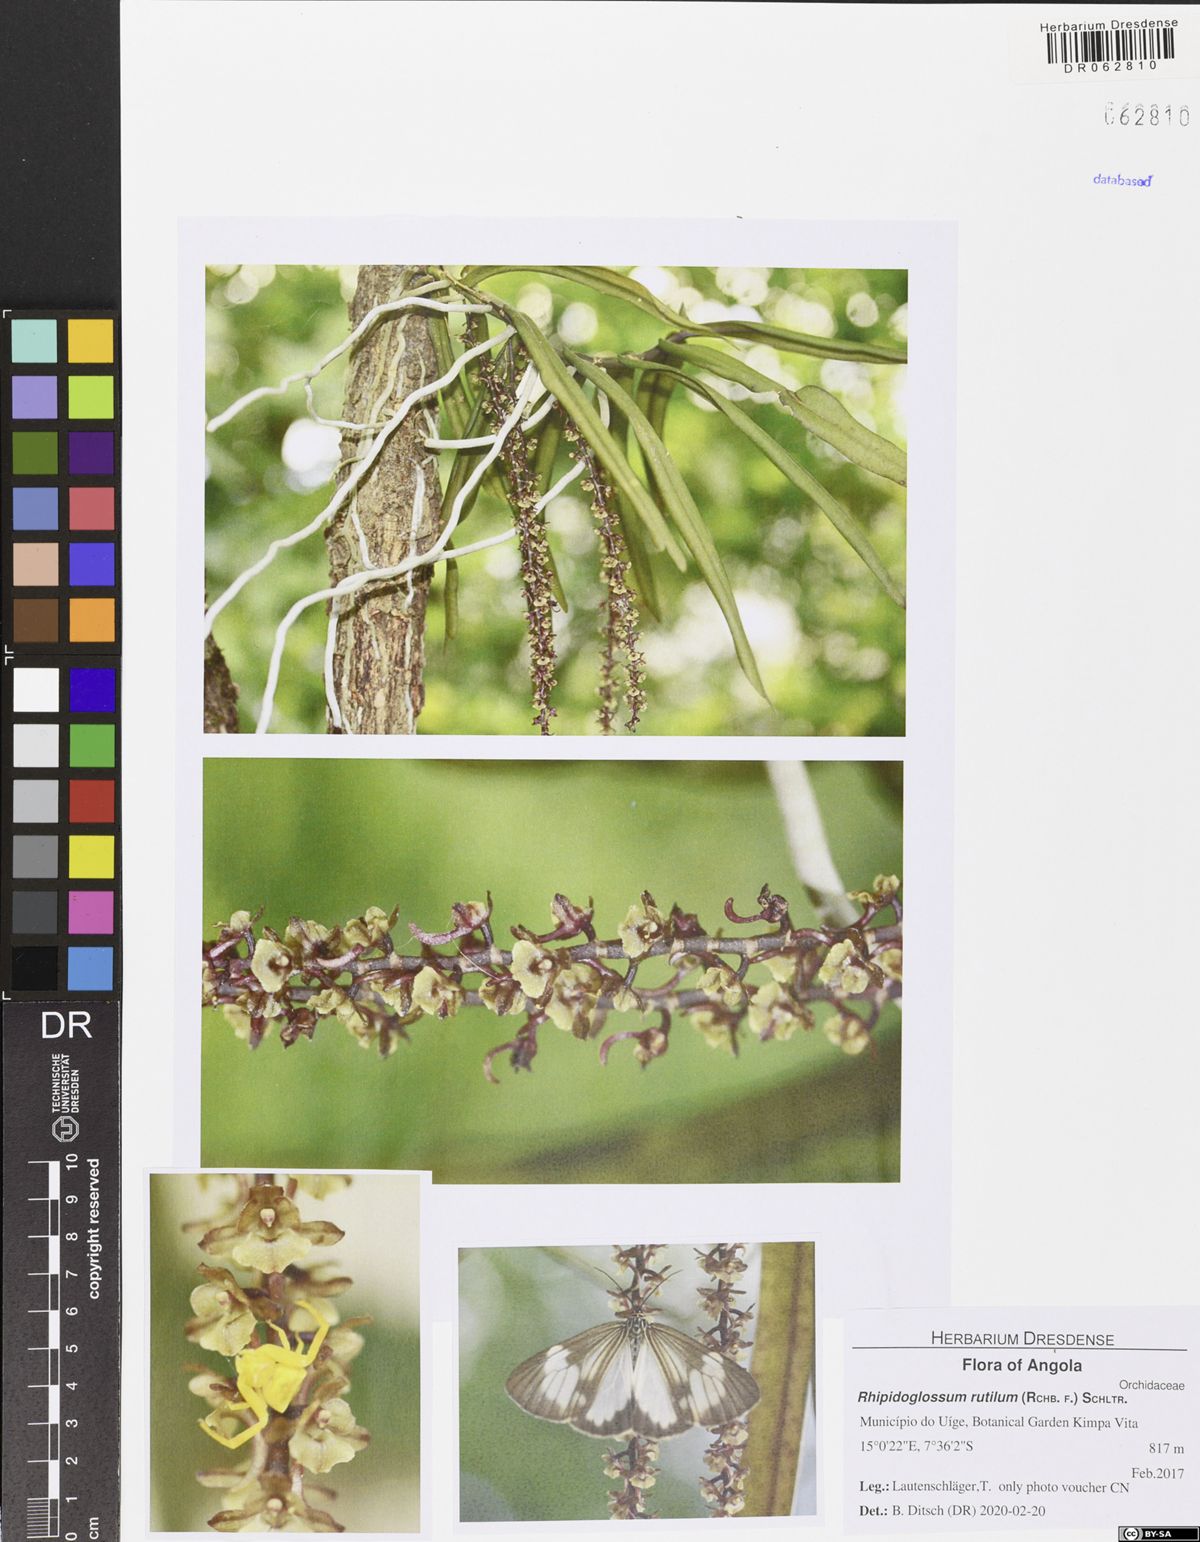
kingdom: Plantae
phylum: Tracheophyta
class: Liliopsida
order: Asparagales
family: Orchidaceae
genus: Rhipidoglossum
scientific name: Rhipidoglossum rutilum
